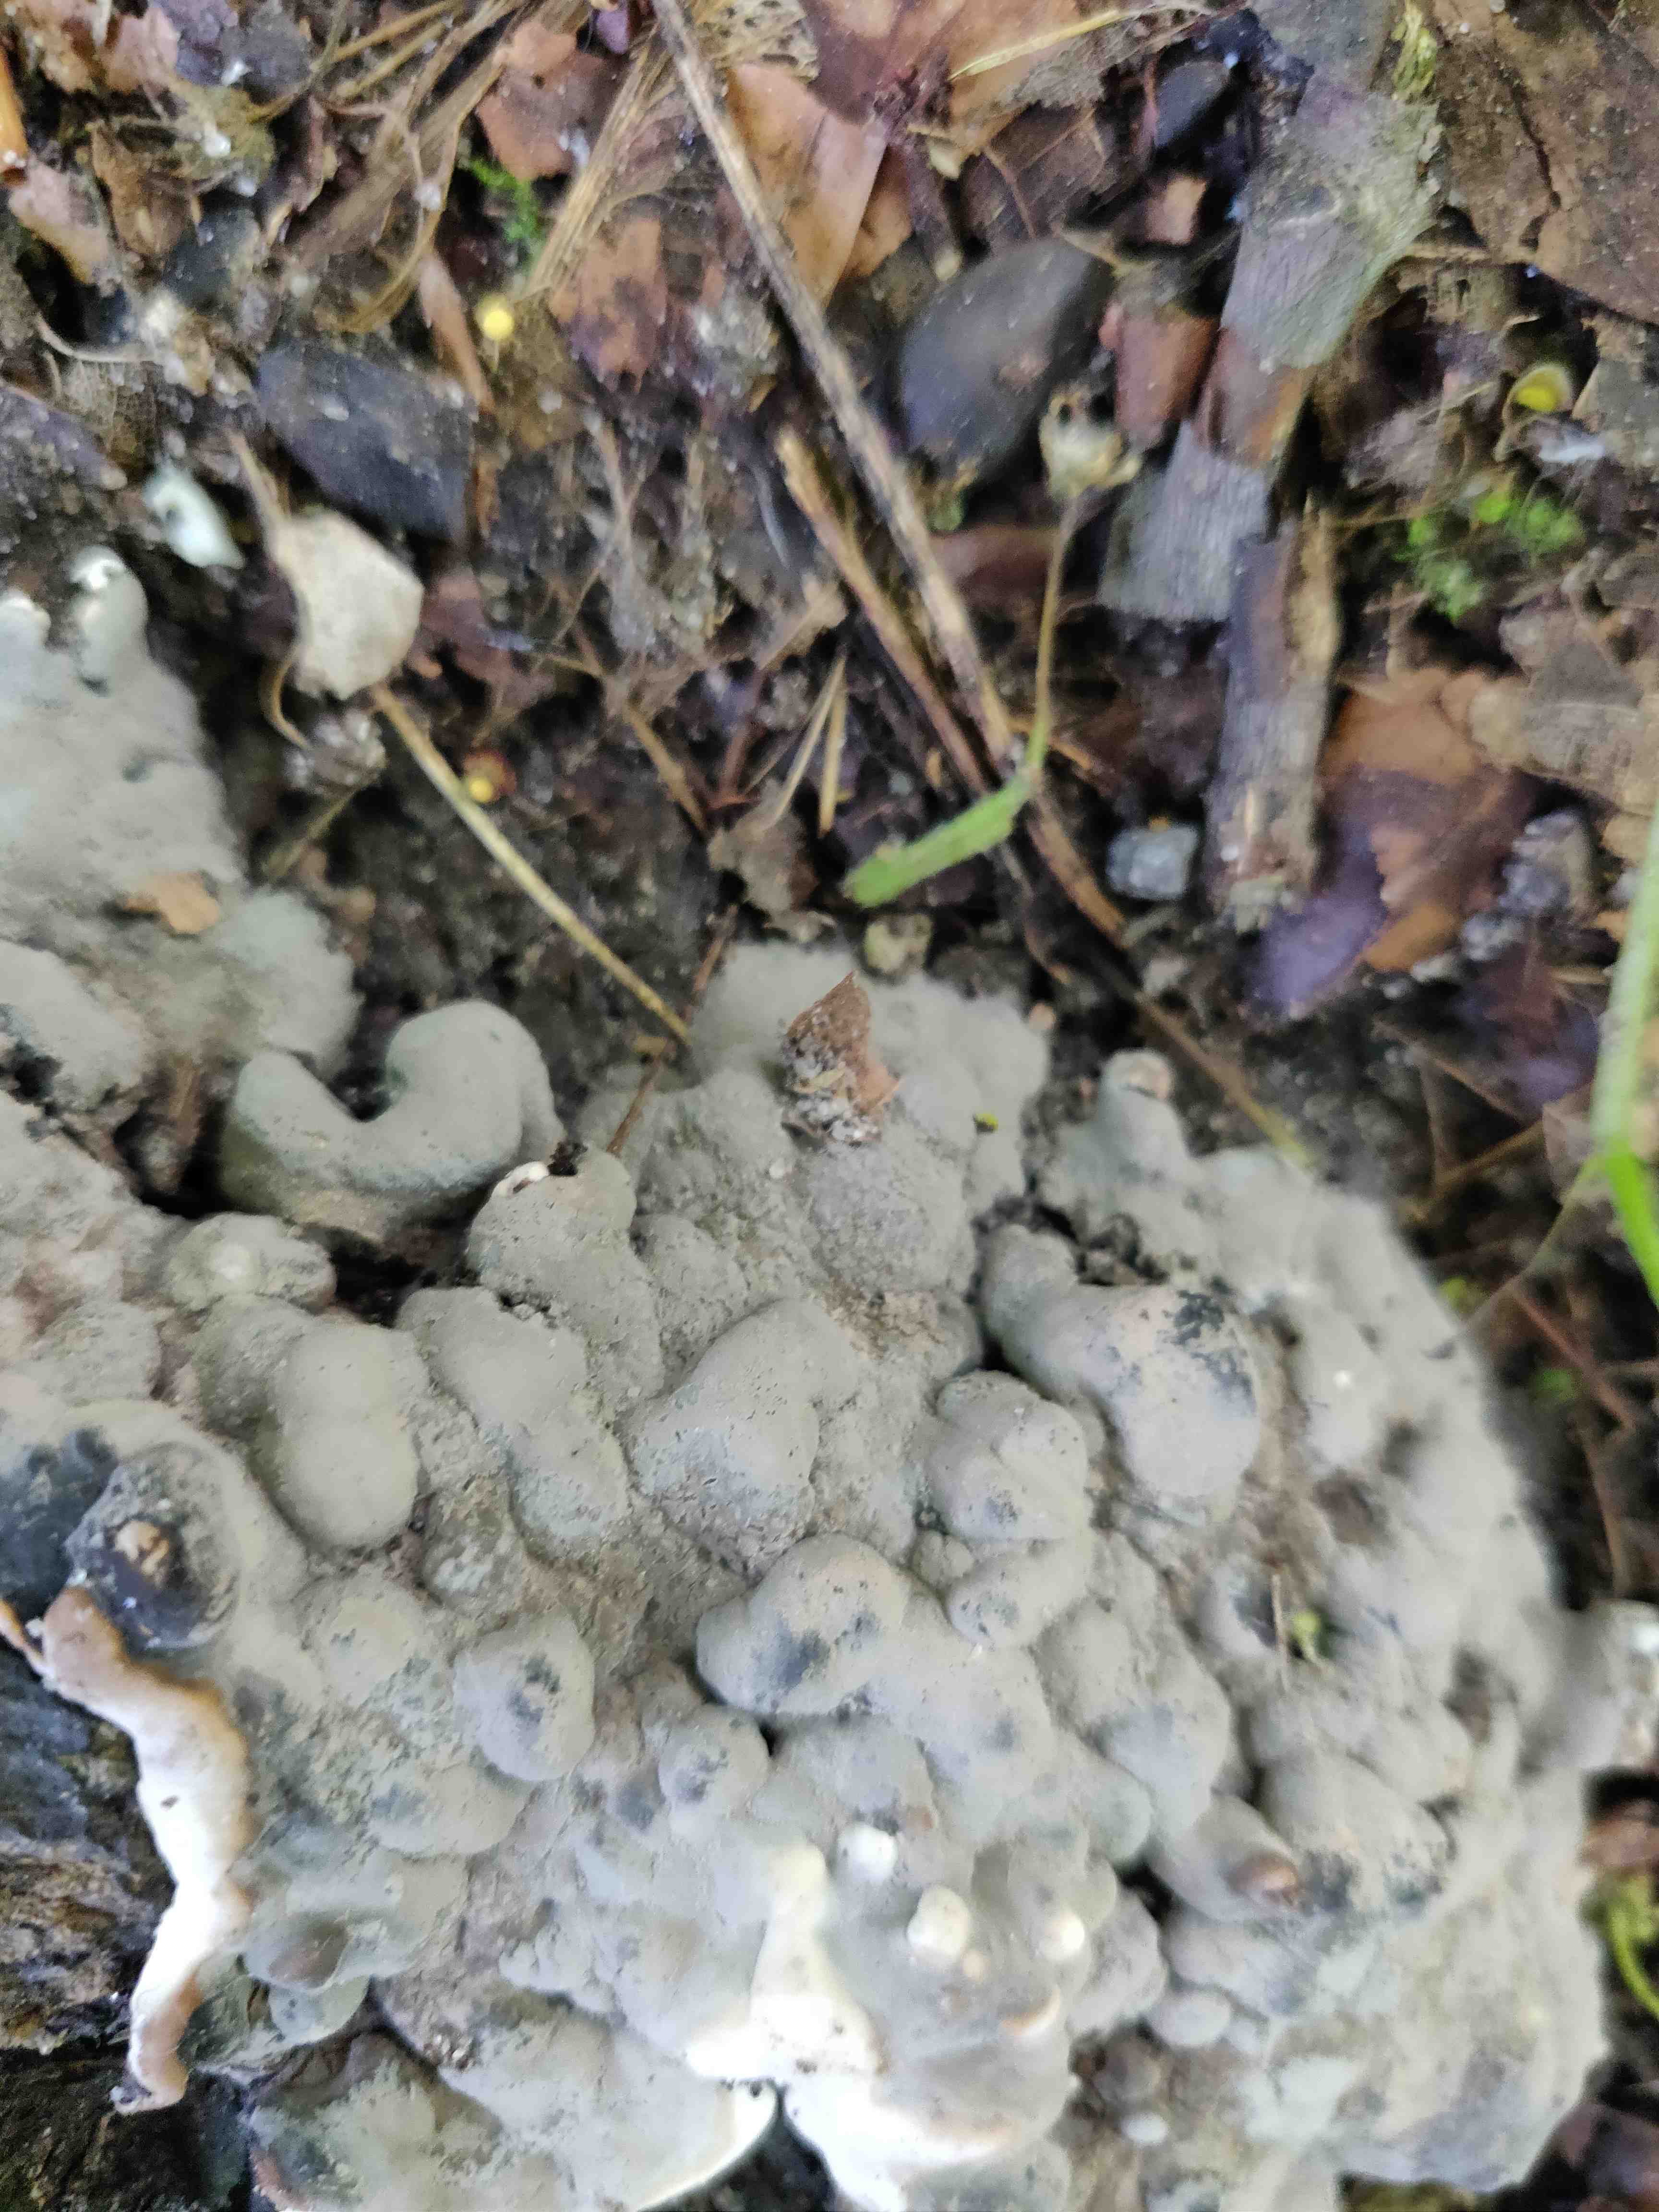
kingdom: Fungi
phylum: Ascomycota
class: Sordariomycetes
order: Xylariales
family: Xylariaceae
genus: Kretzschmaria
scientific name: Kretzschmaria deusta
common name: stor kulsvamp
